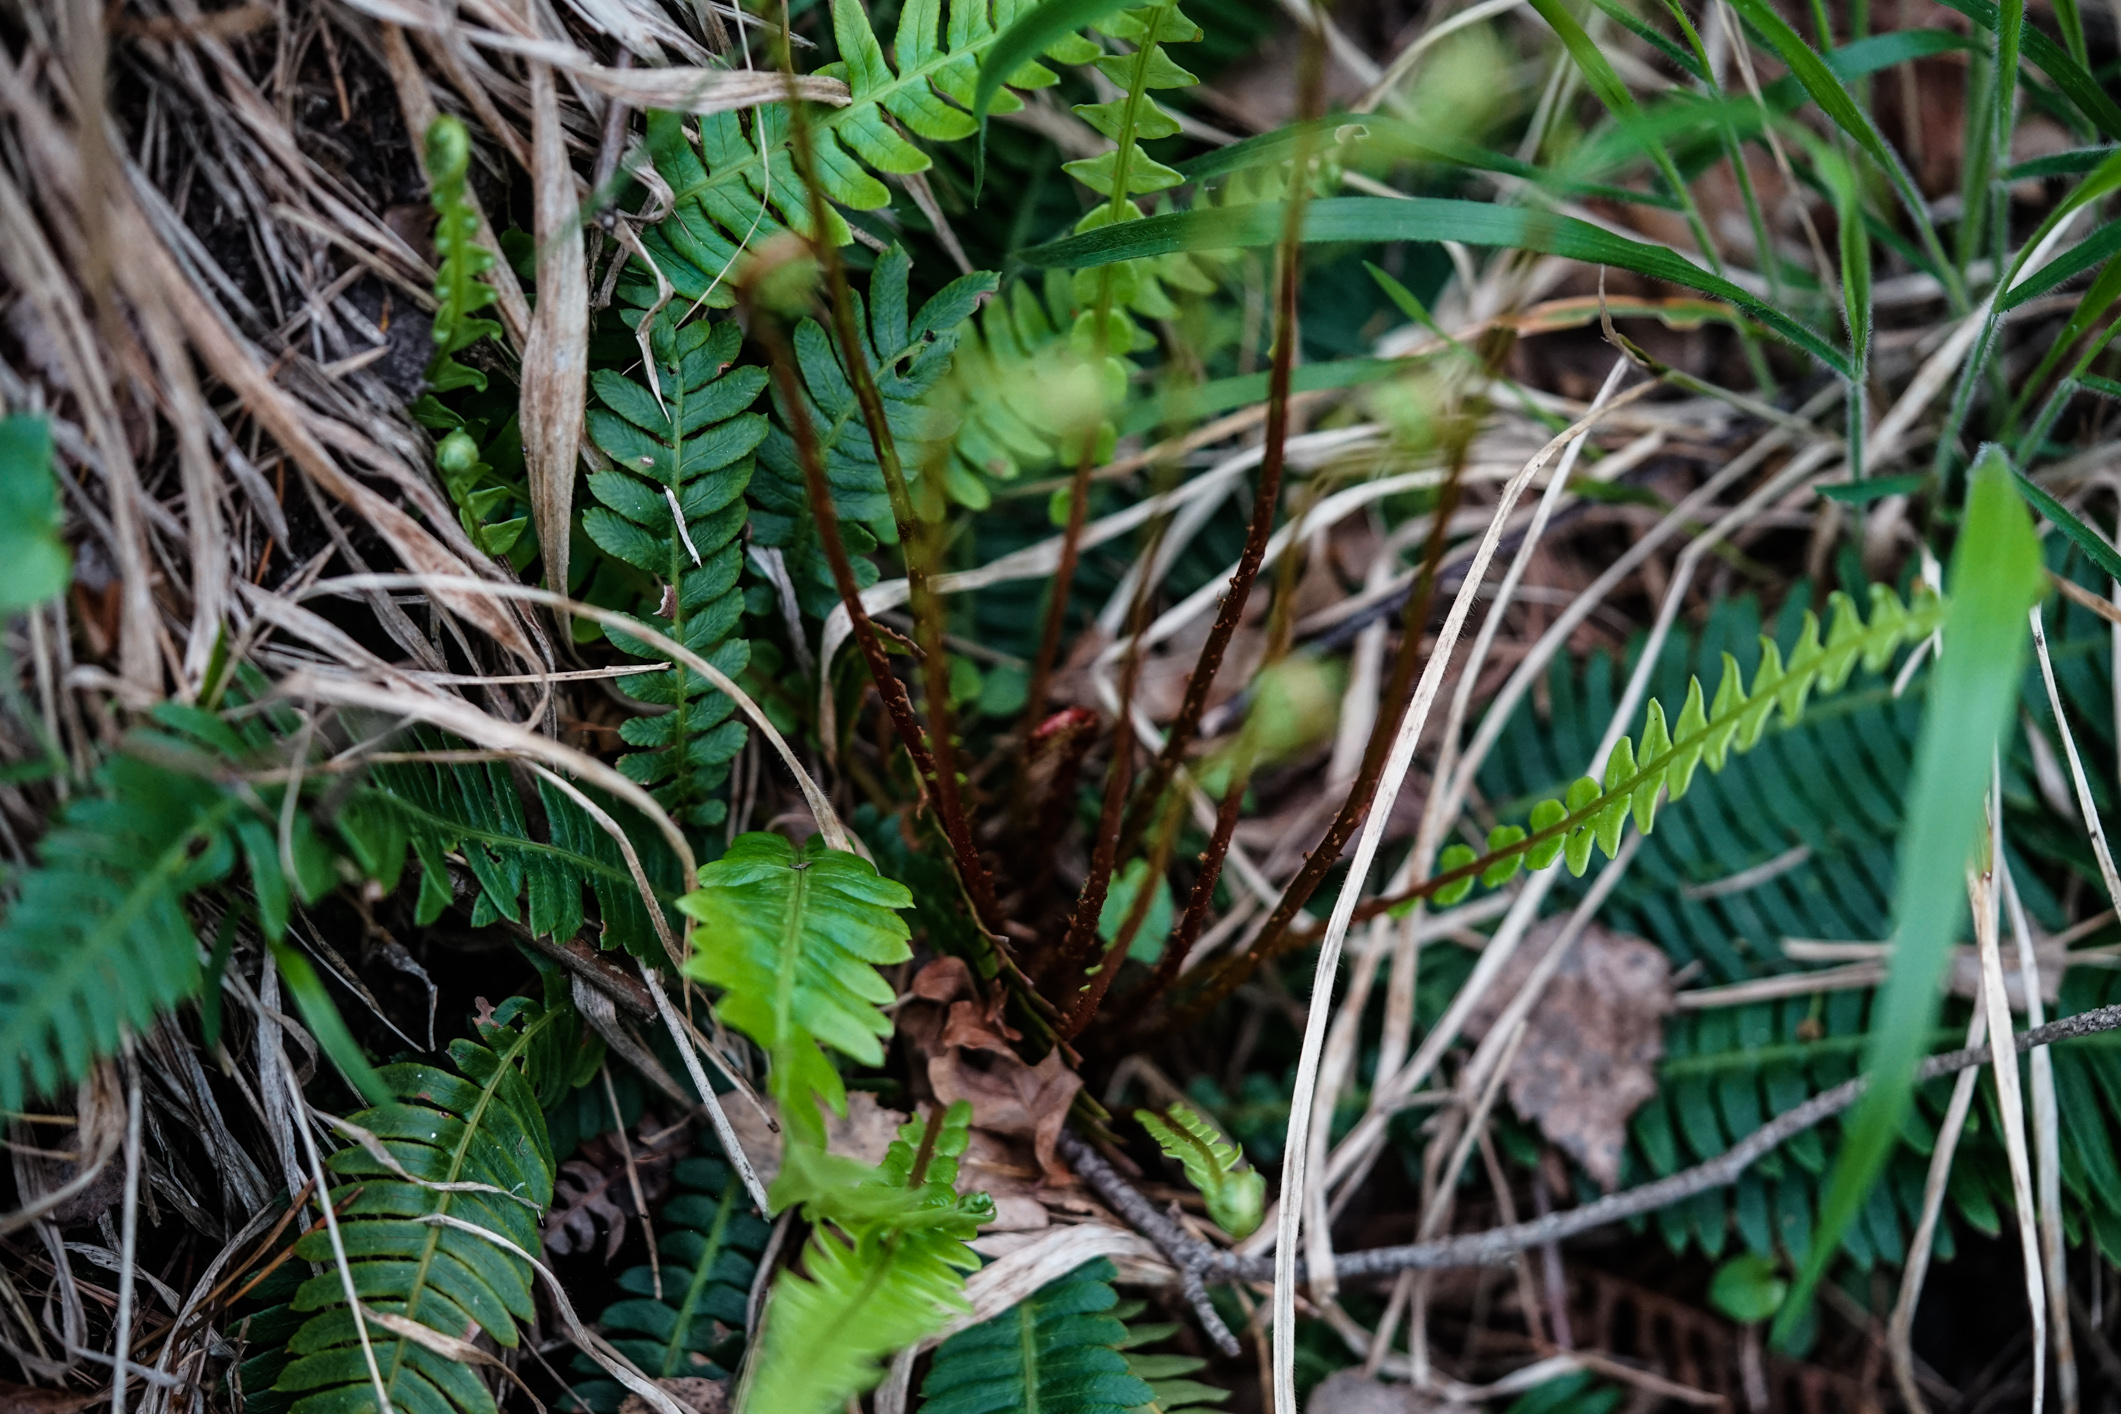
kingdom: Plantae
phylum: Tracheophyta
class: Polypodiopsida
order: Polypodiales
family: Blechnaceae
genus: Struthiopteris
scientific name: Struthiopteris spicant
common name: Deer fern
